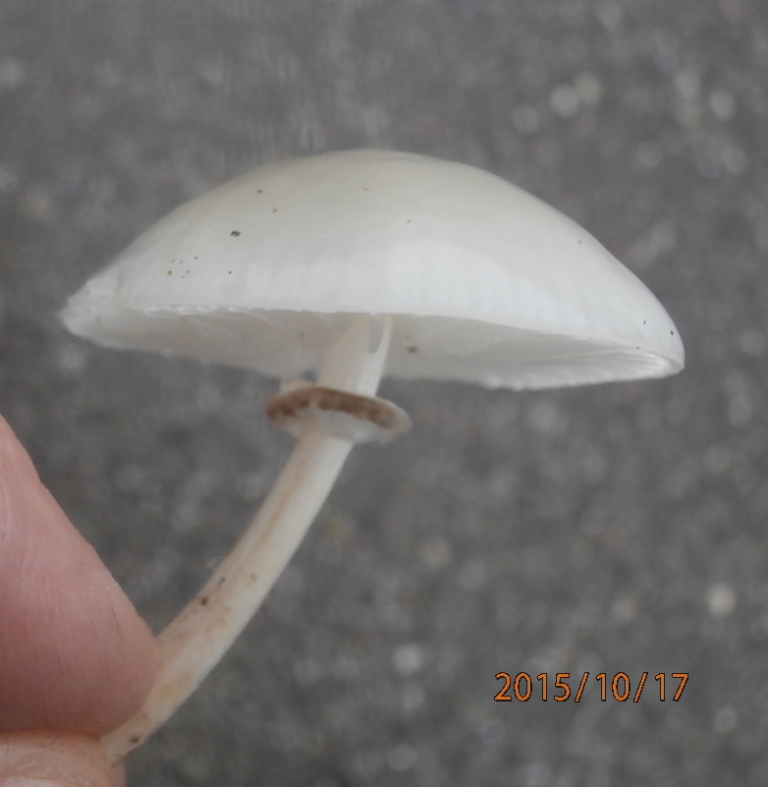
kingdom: Fungi
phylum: Basidiomycota
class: Agaricomycetes
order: Agaricales
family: Physalacriaceae
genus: Mucidula
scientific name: Mucidula mucida
